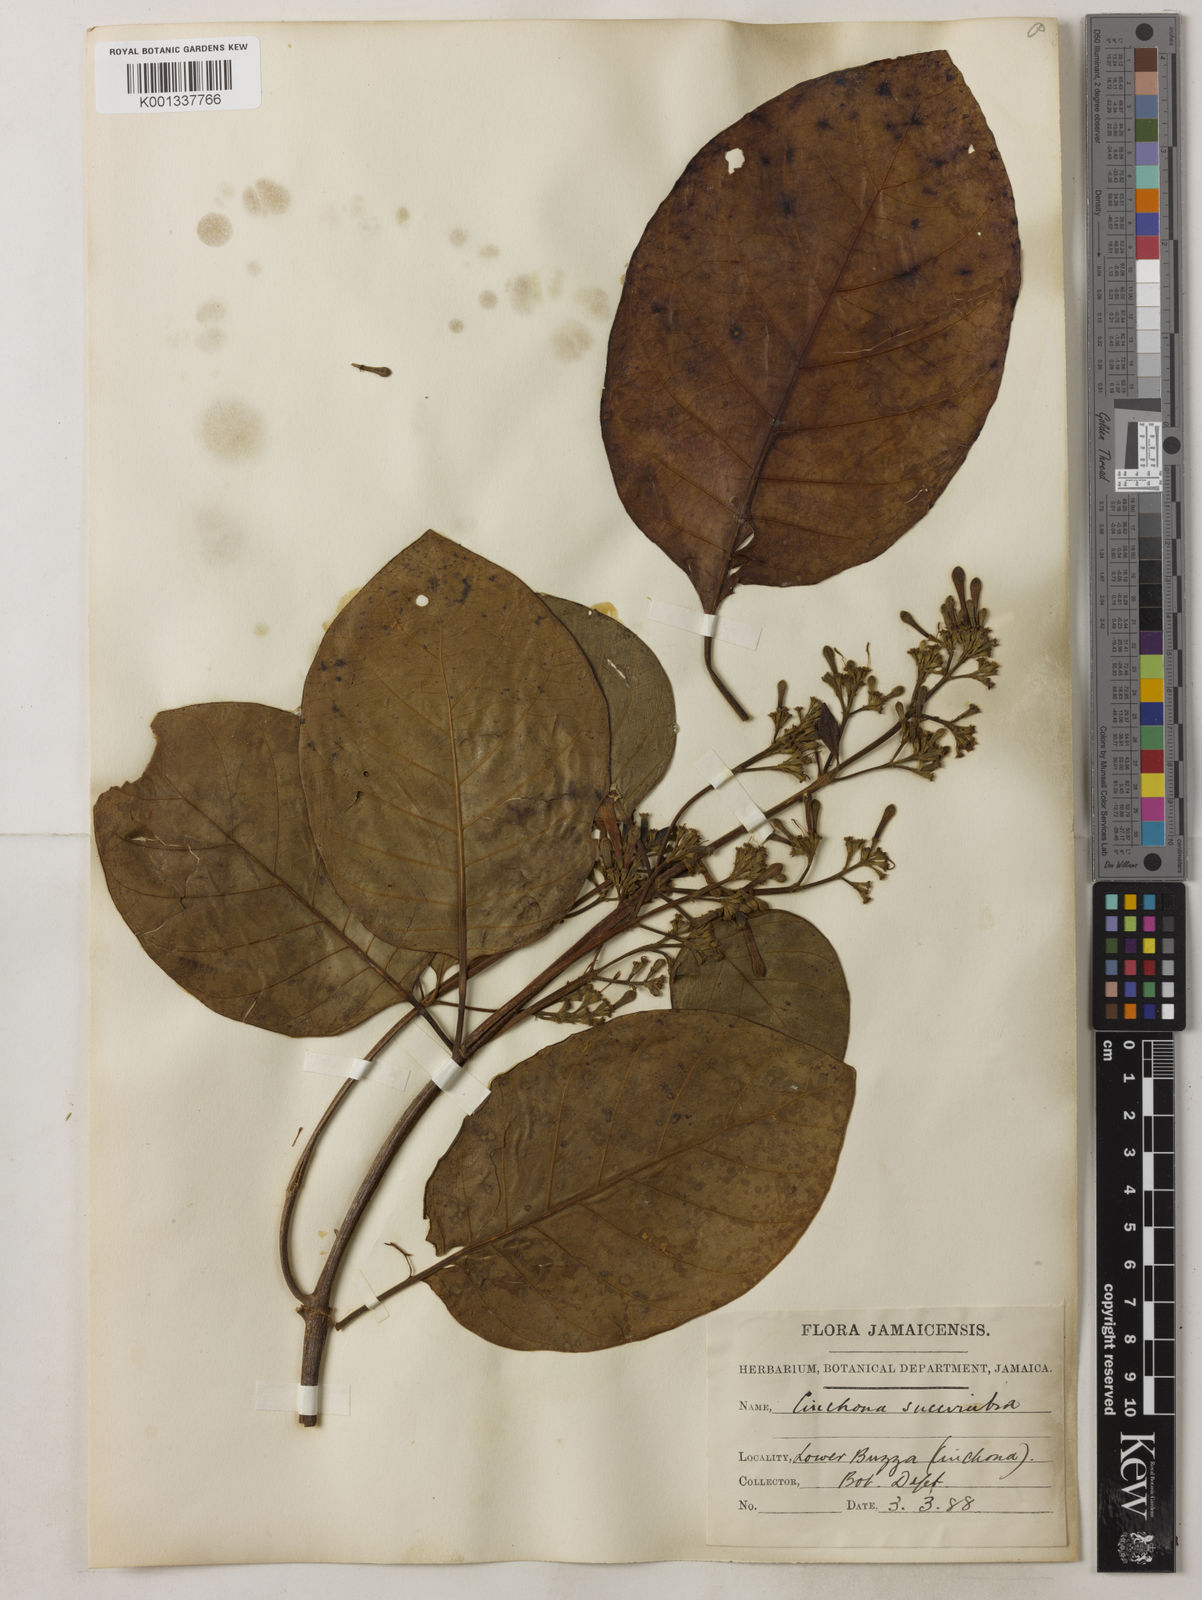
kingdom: Plantae
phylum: Tracheophyta
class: Magnoliopsida
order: Gentianales
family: Rubiaceae
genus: Cinchona
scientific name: Cinchona pubescens
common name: Quinine
